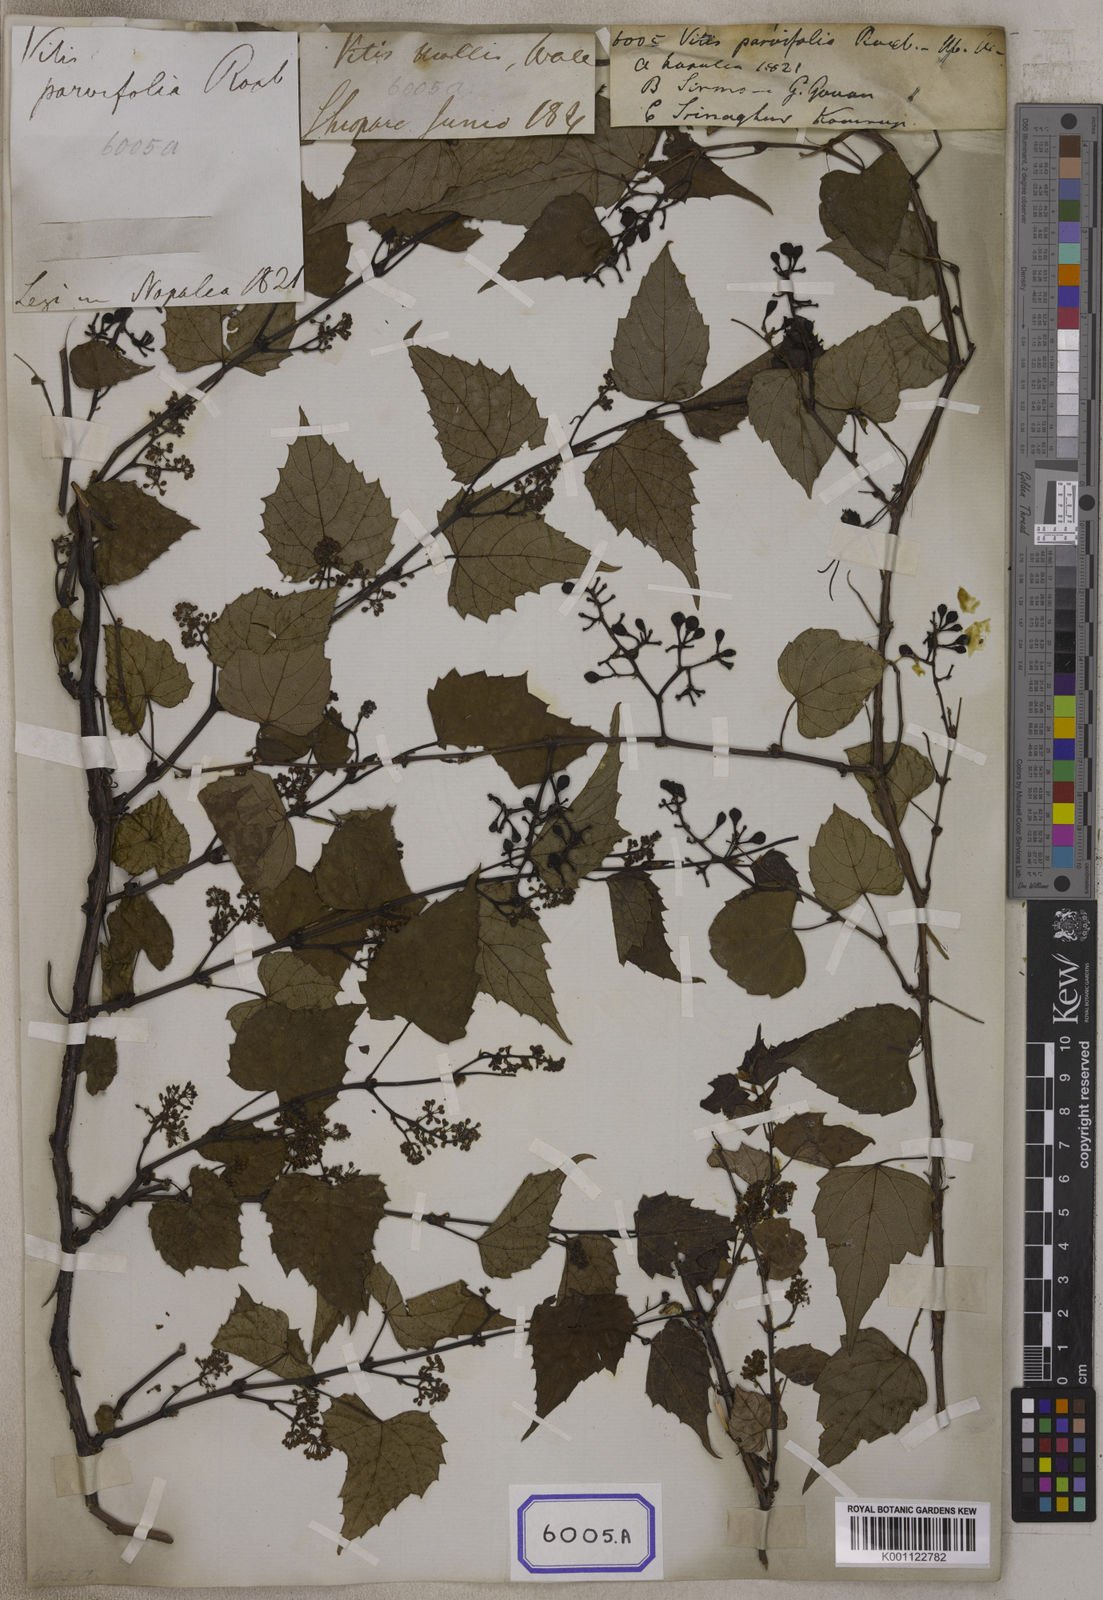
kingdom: Plantae
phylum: Tracheophyta
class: Magnoliopsida
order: Vitales
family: Vitaceae
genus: Vitis
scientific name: Vitis flexuosa
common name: Creeping grape
